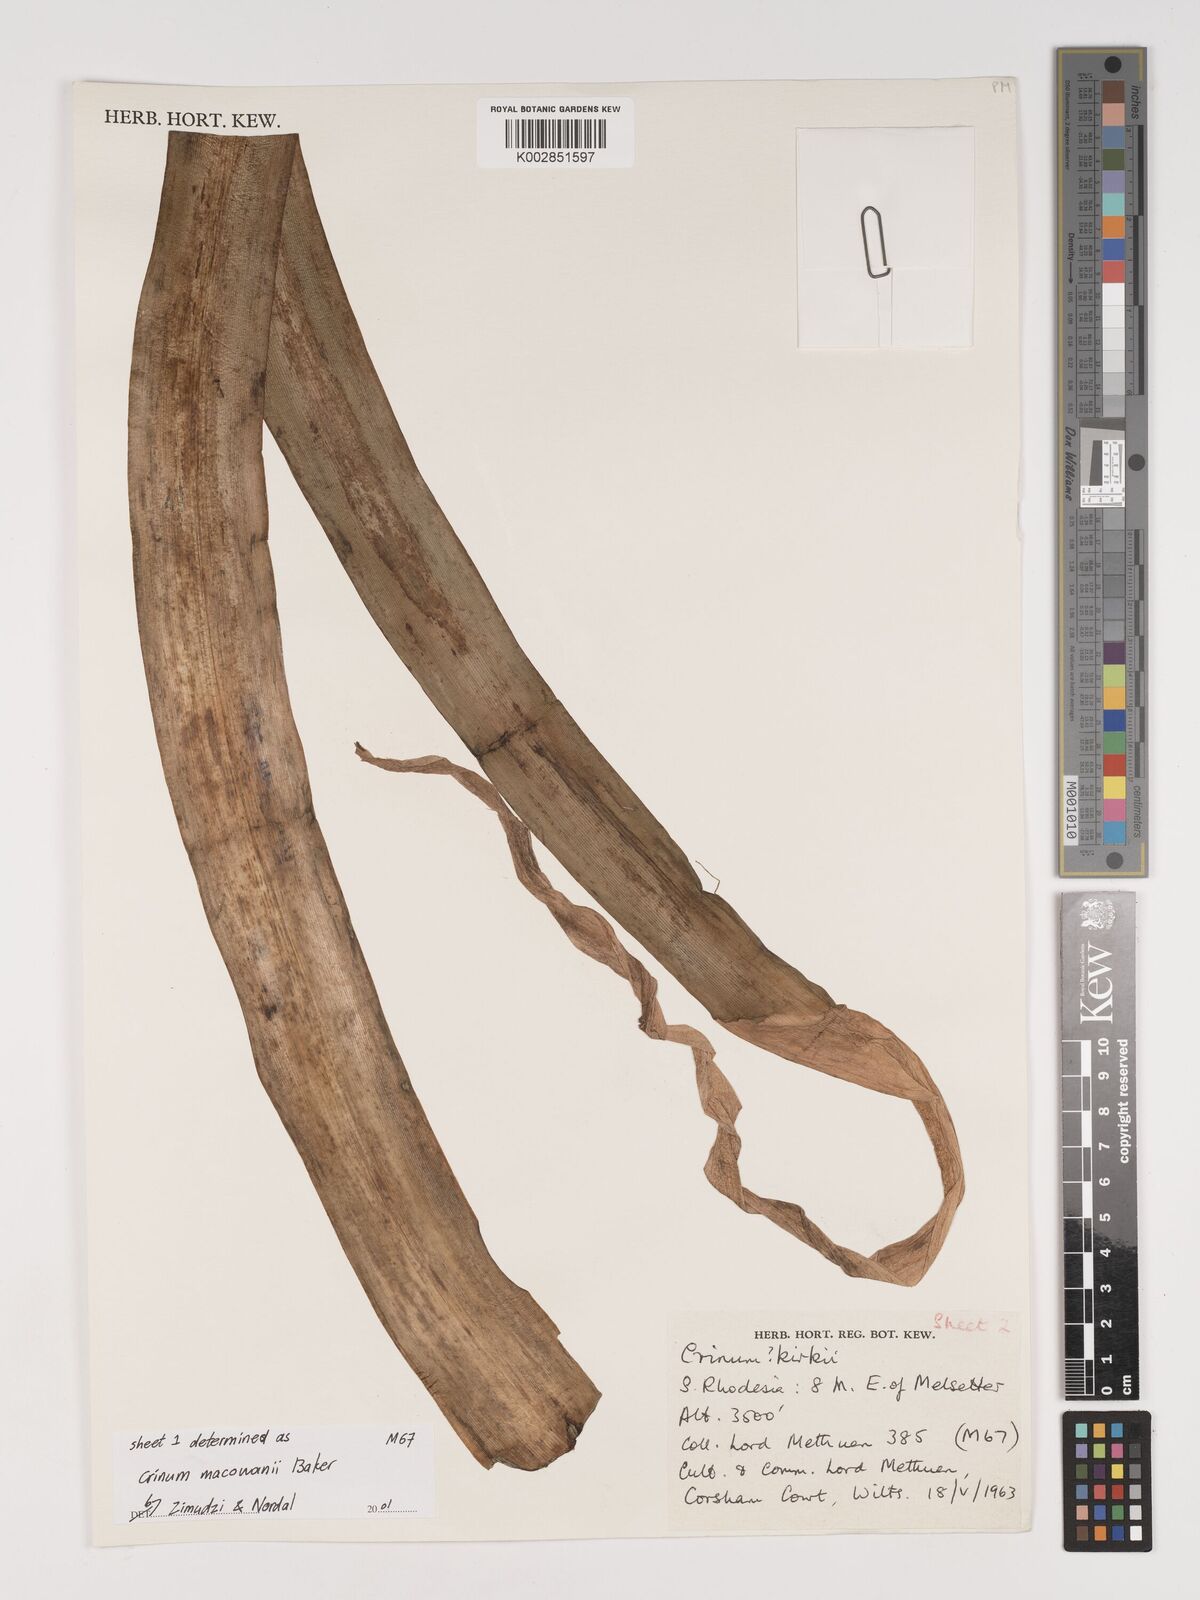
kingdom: Plantae
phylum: Tracheophyta
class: Liliopsida
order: Asparagales
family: Amaryllidaceae
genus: Crinum
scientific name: Crinum macowanii
